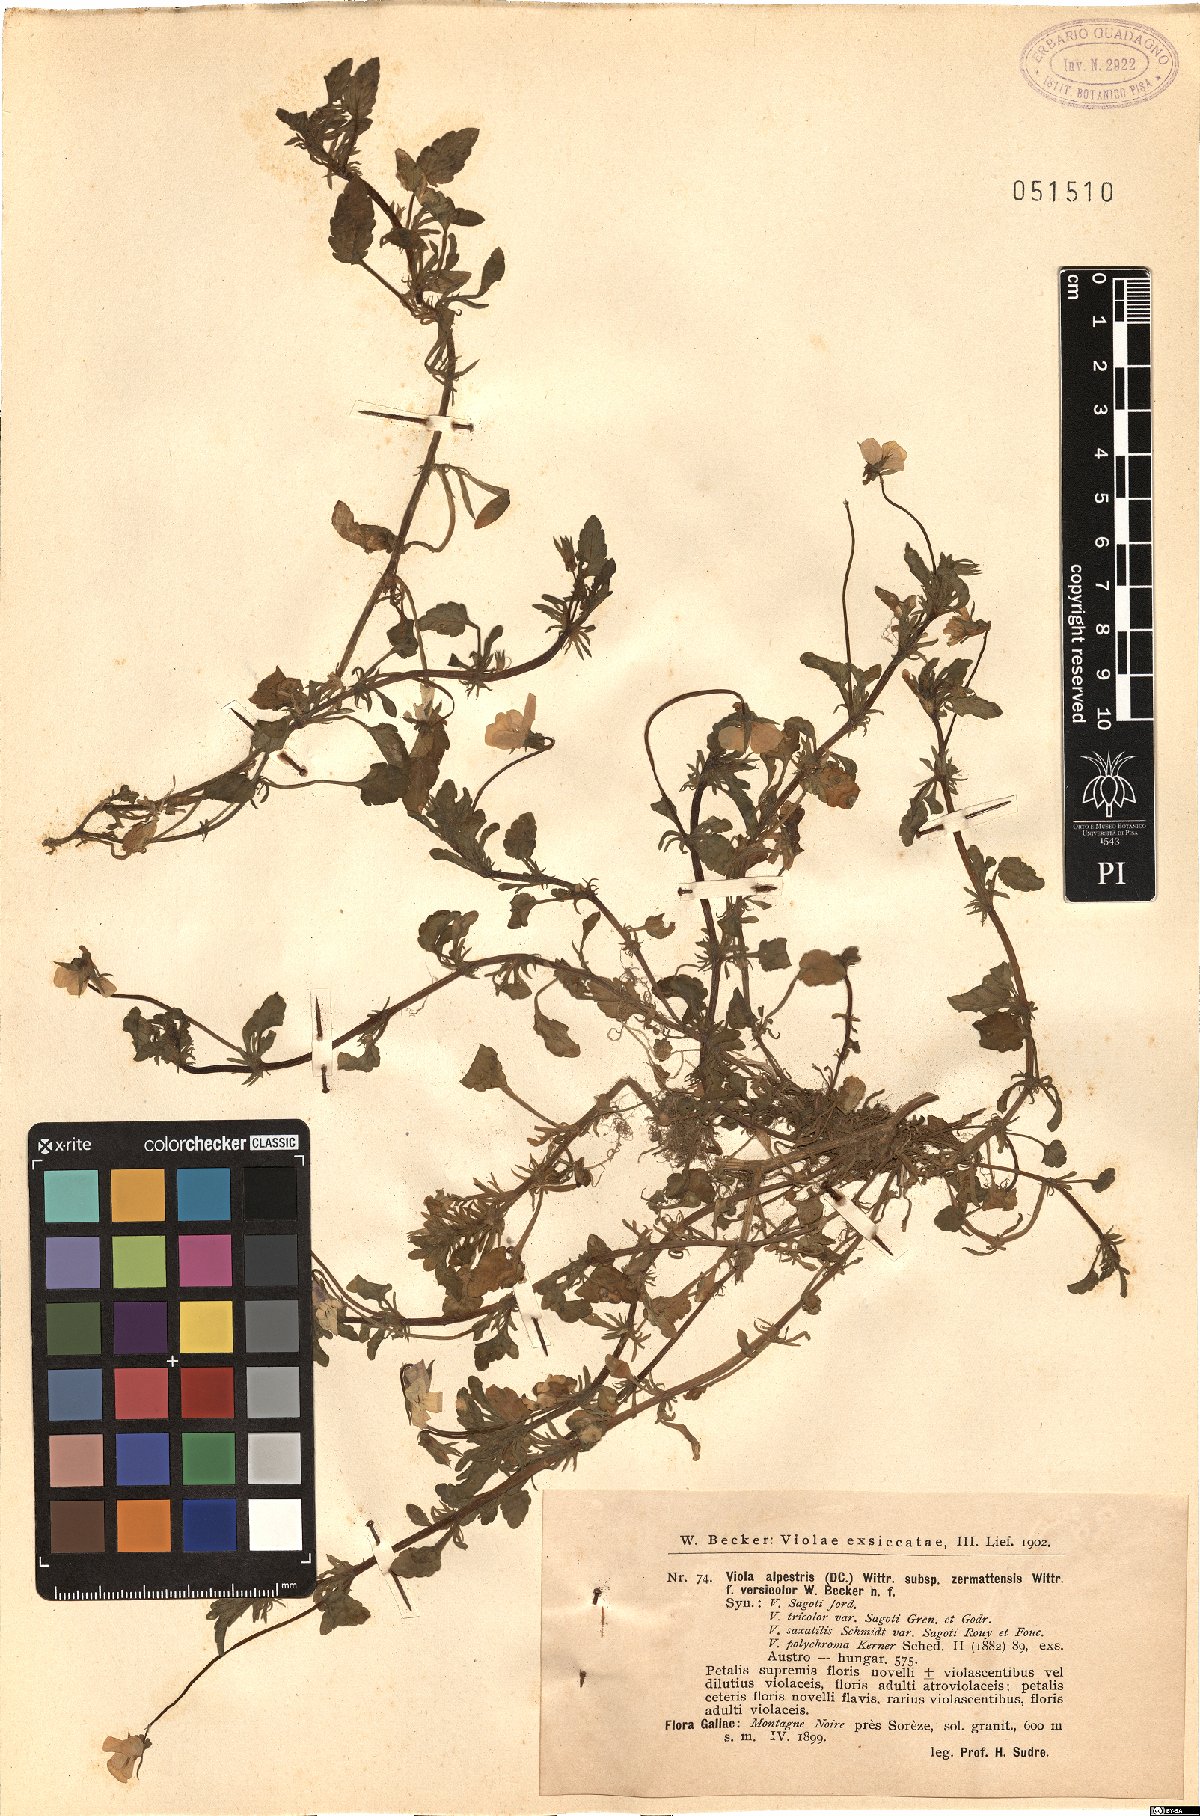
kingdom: Plantae
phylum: Tracheophyta
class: Magnoliopsida
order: Malpighiales
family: Violaceae
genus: Viola
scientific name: Viola tricolor
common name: Pansy
